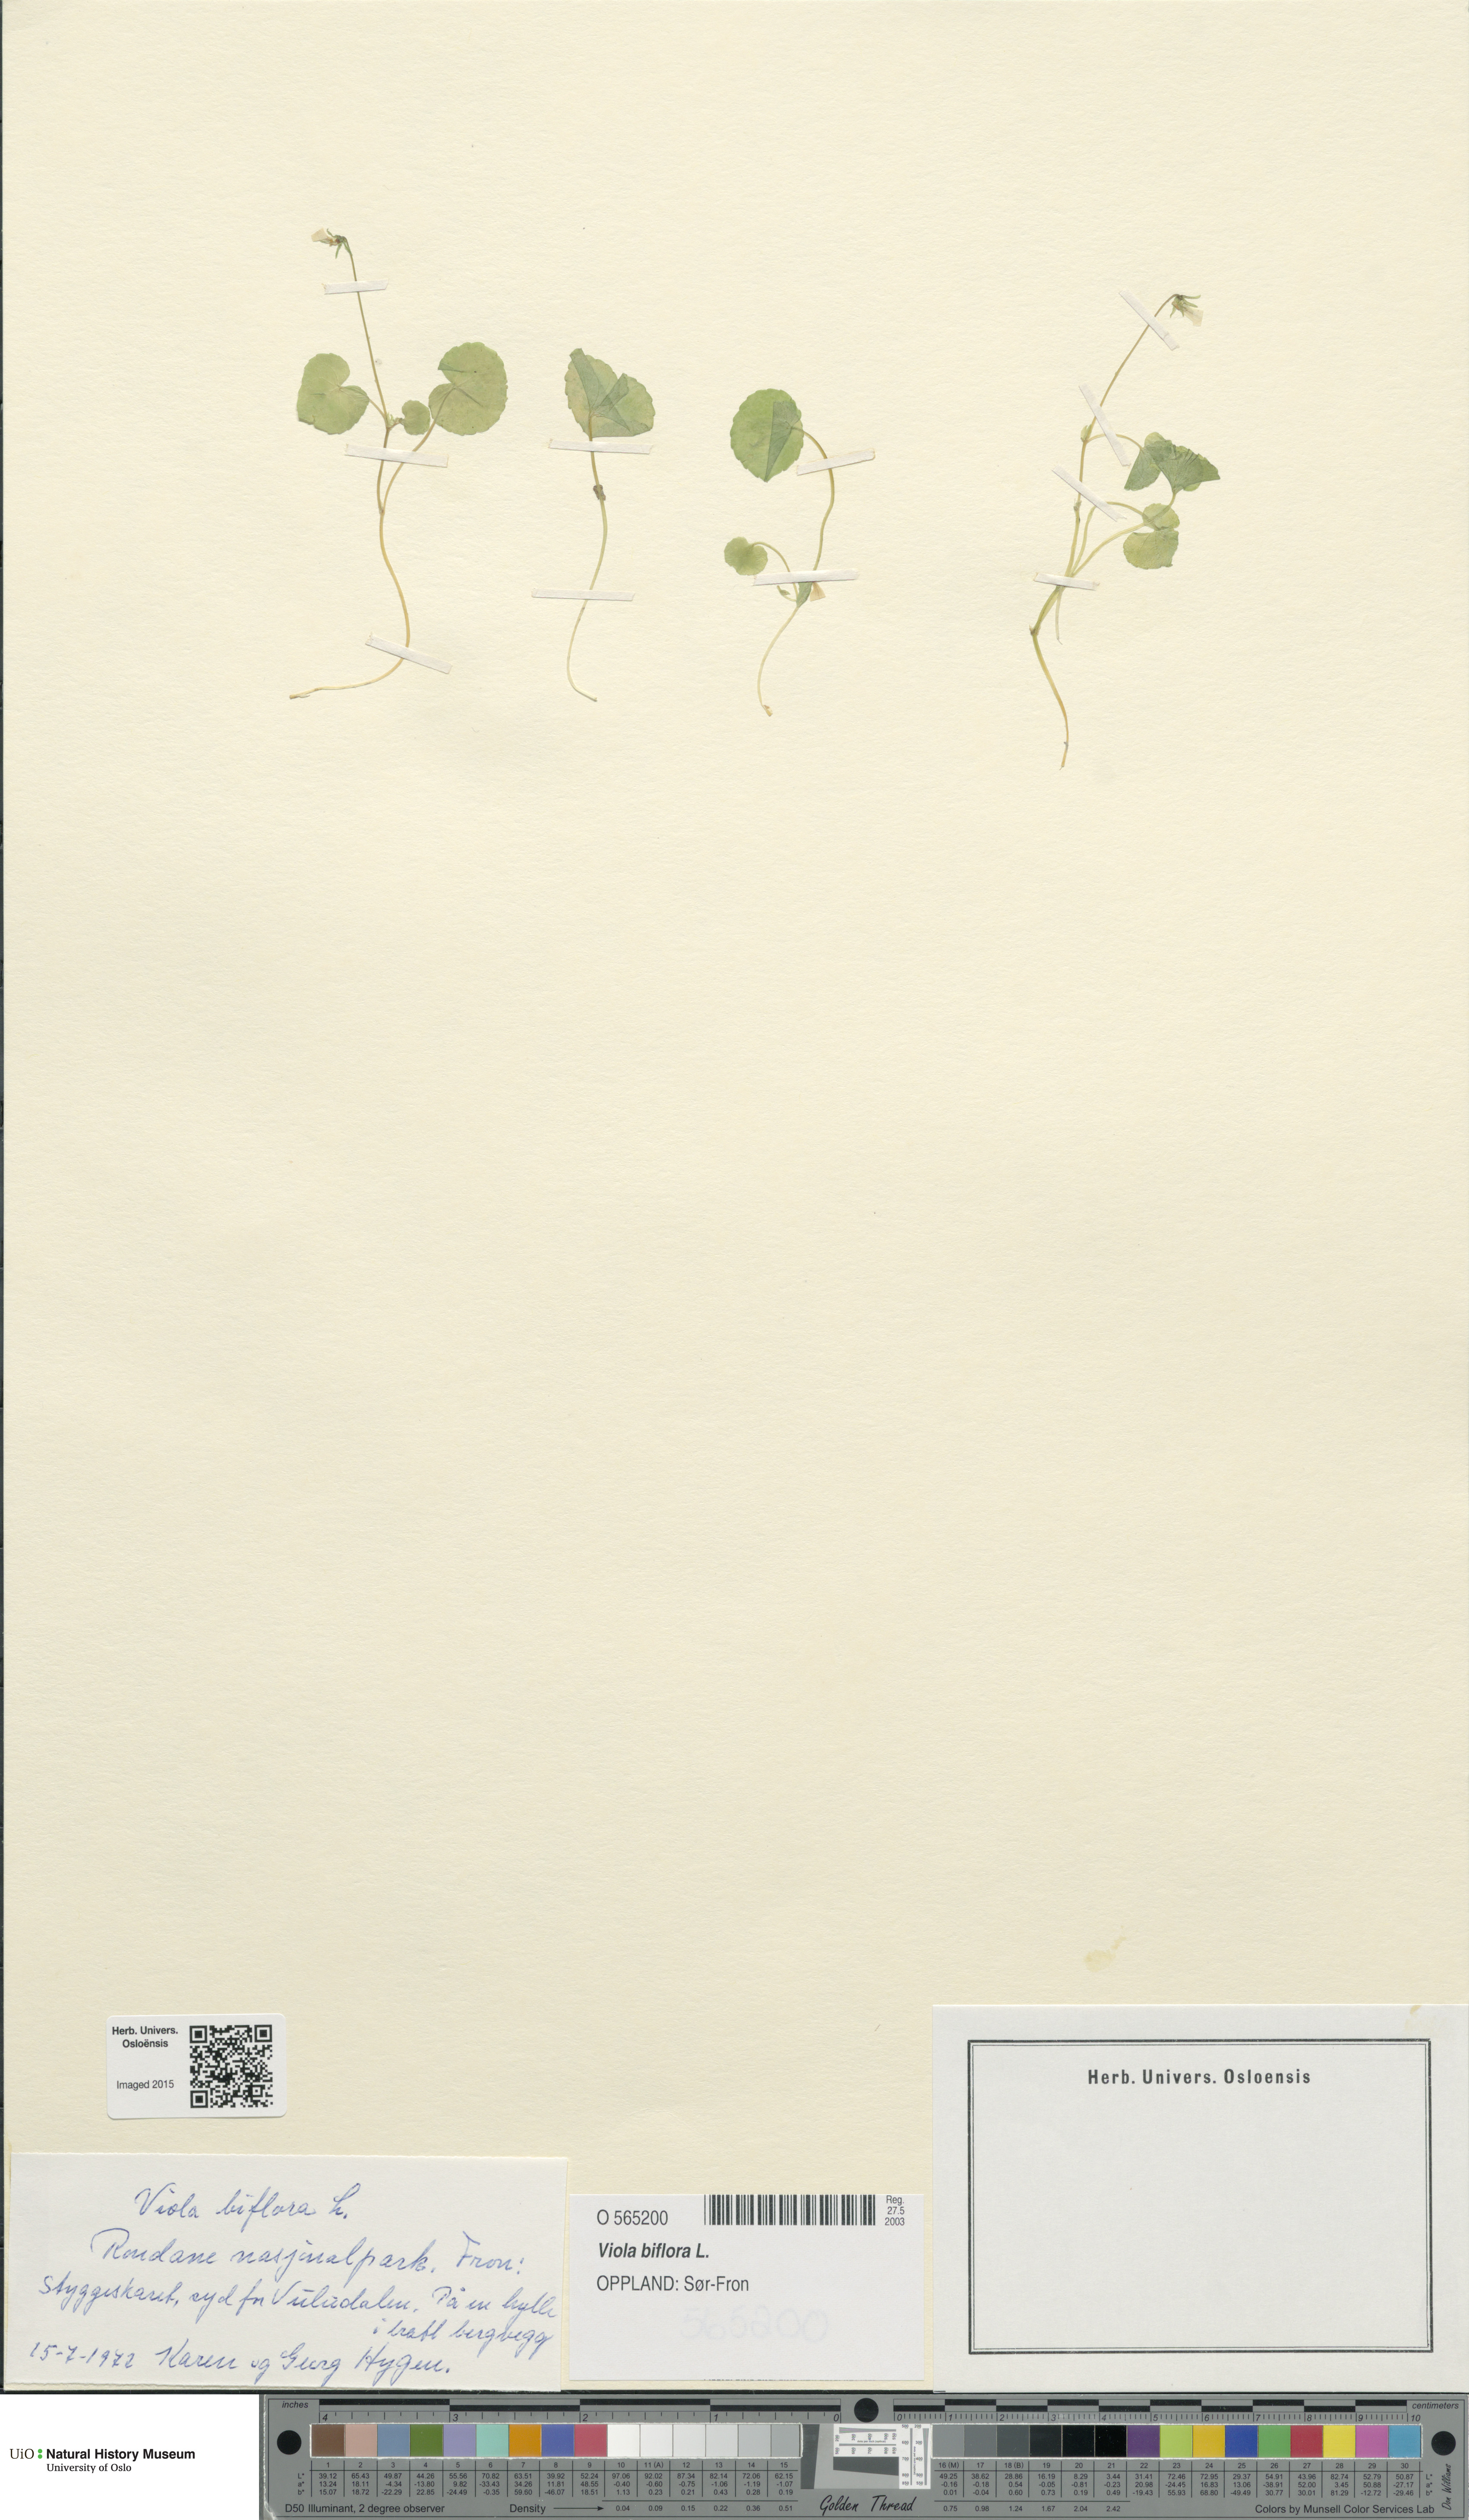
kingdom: Plantae
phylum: Tracheophyta
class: Magnoliopsida
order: Malpighiales
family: Violaceae
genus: Viola
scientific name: Viola biflora
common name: Alpine yellow violet
